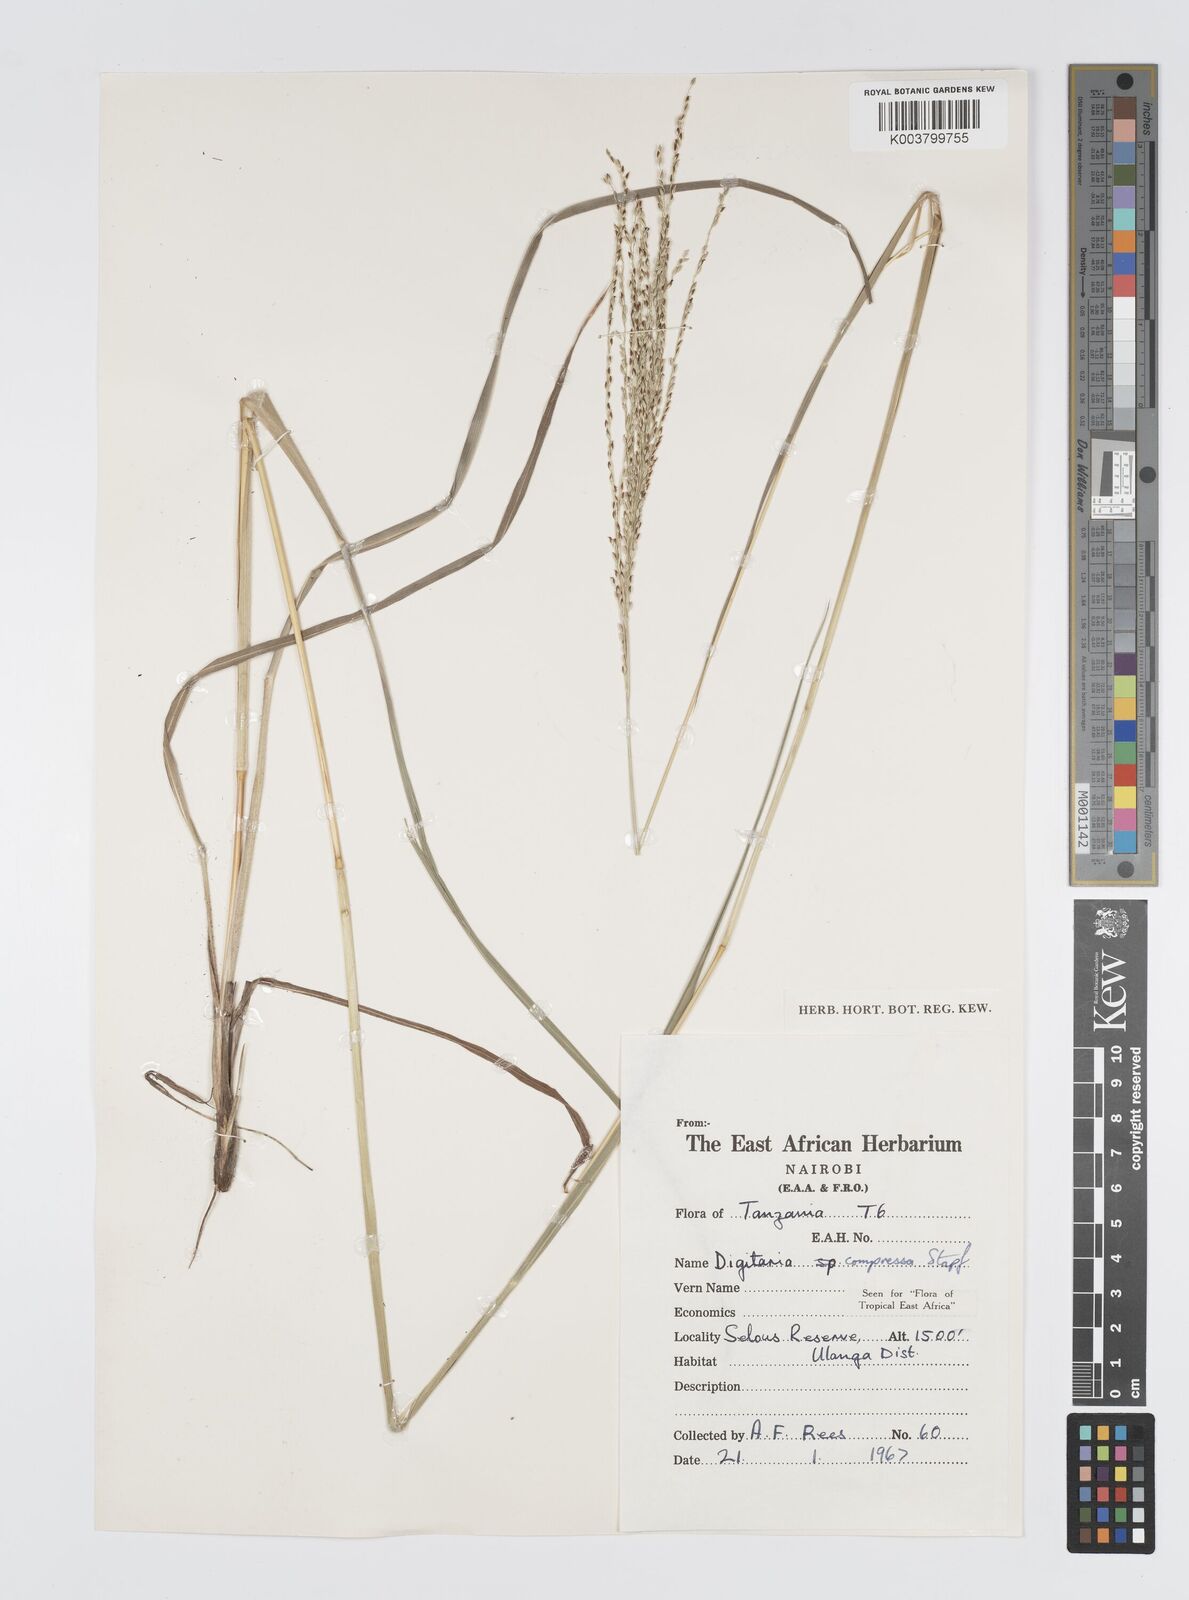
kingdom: Plantae
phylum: Tracheophyta
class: Liliopsida
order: Poales
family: Poaceae
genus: Digitaria
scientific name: Digitaria compressa
